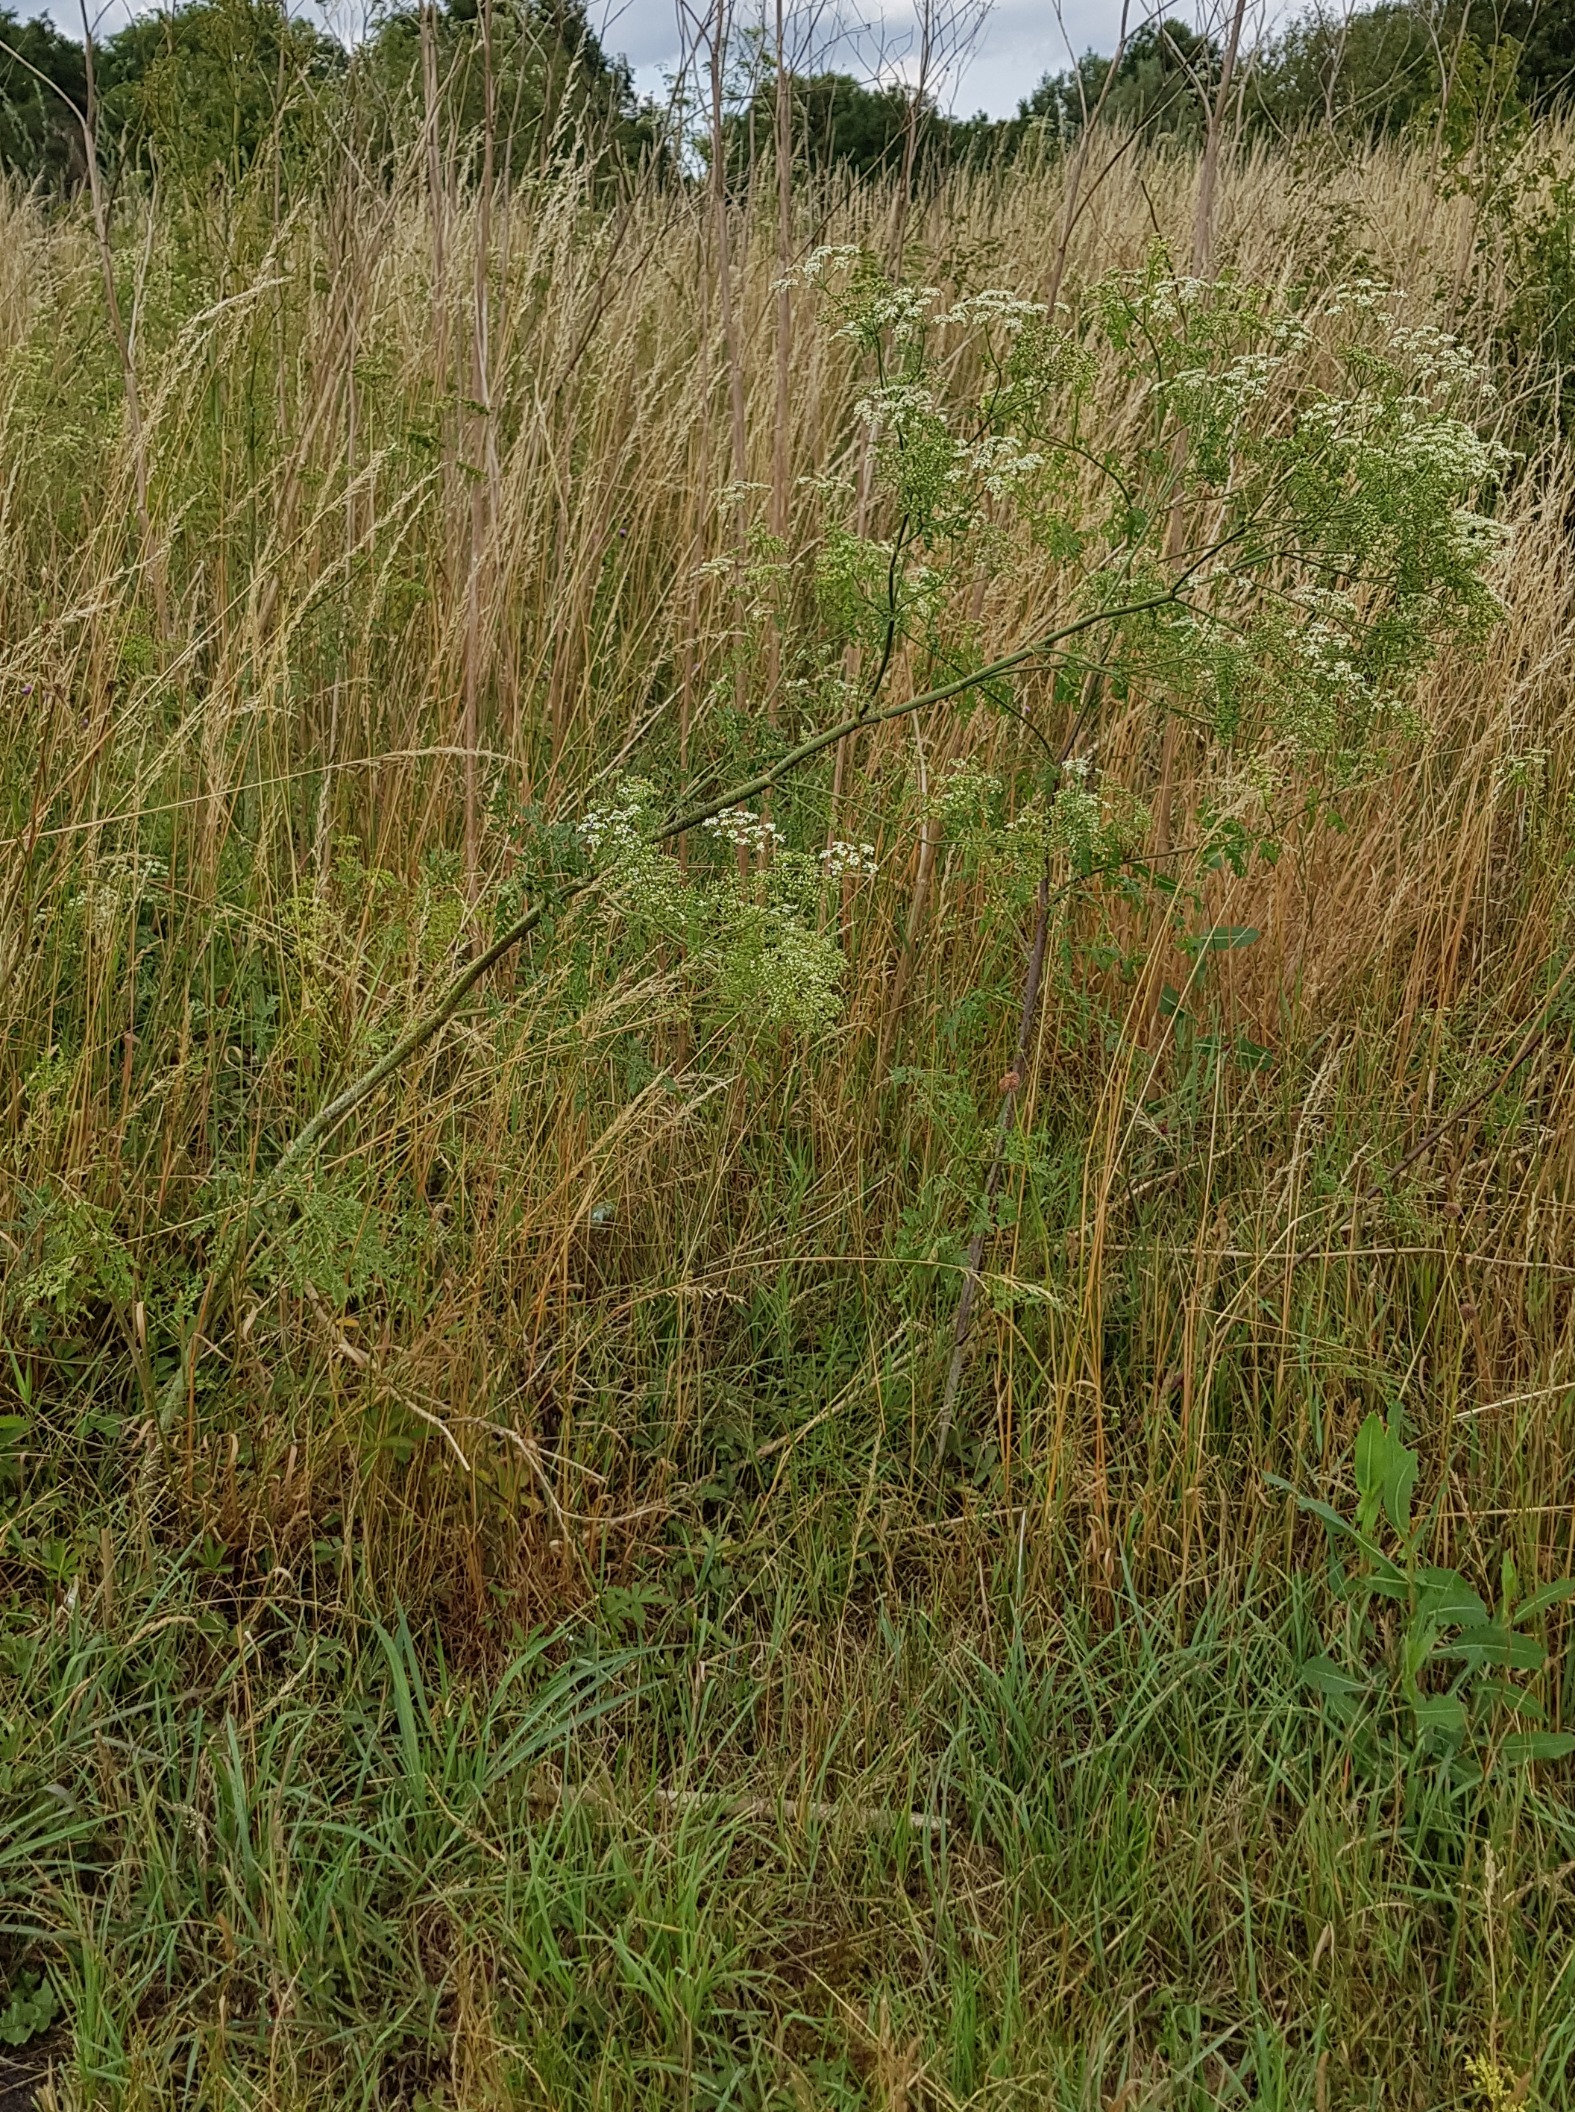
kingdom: Plantae
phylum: Tracheophyta
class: Magnoliopsida
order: Apiales
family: Apiaceae
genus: Conium
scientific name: Conium maculatum
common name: Skarntyde
